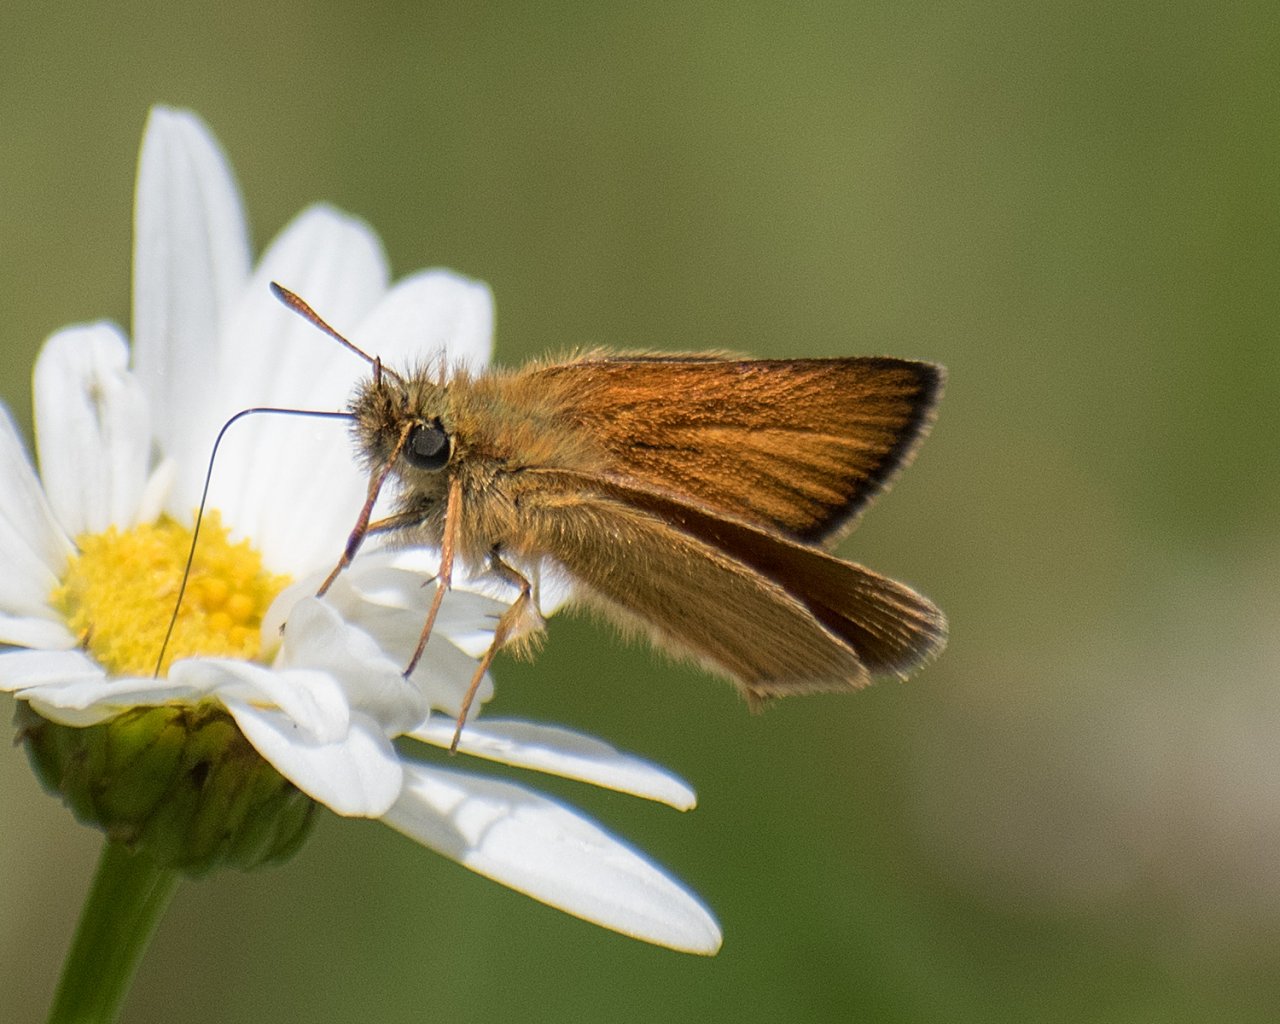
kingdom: Animalia
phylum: Arthropoda
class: Insecta
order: Lepidoptera
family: Hesperiidae
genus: Thymelicus
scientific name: Thymelicus lineola
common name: European Skipper
